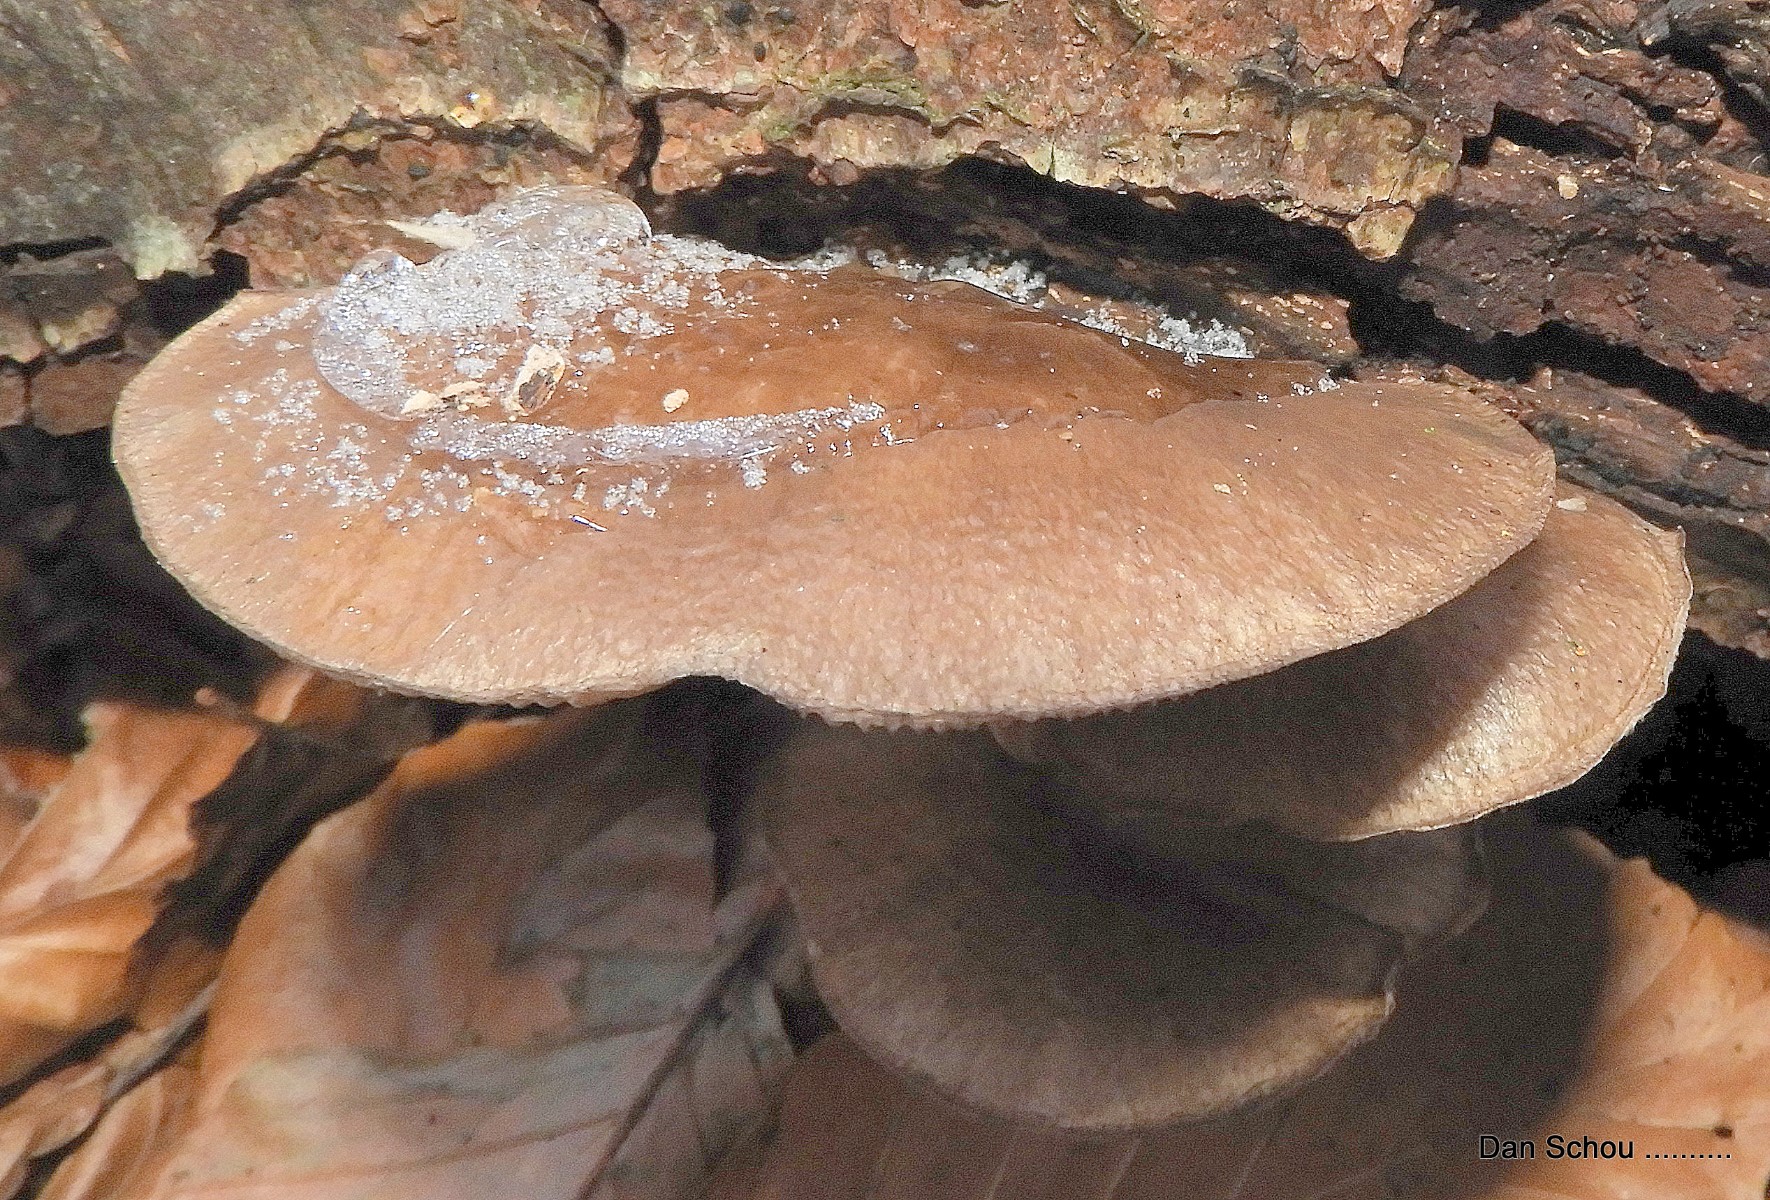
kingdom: Fungi
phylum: Basidiomycota
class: Agaricomycetes
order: Agaricales
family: Pleurotaceae
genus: Pleurotus
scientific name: Pleurotus ostreatus
